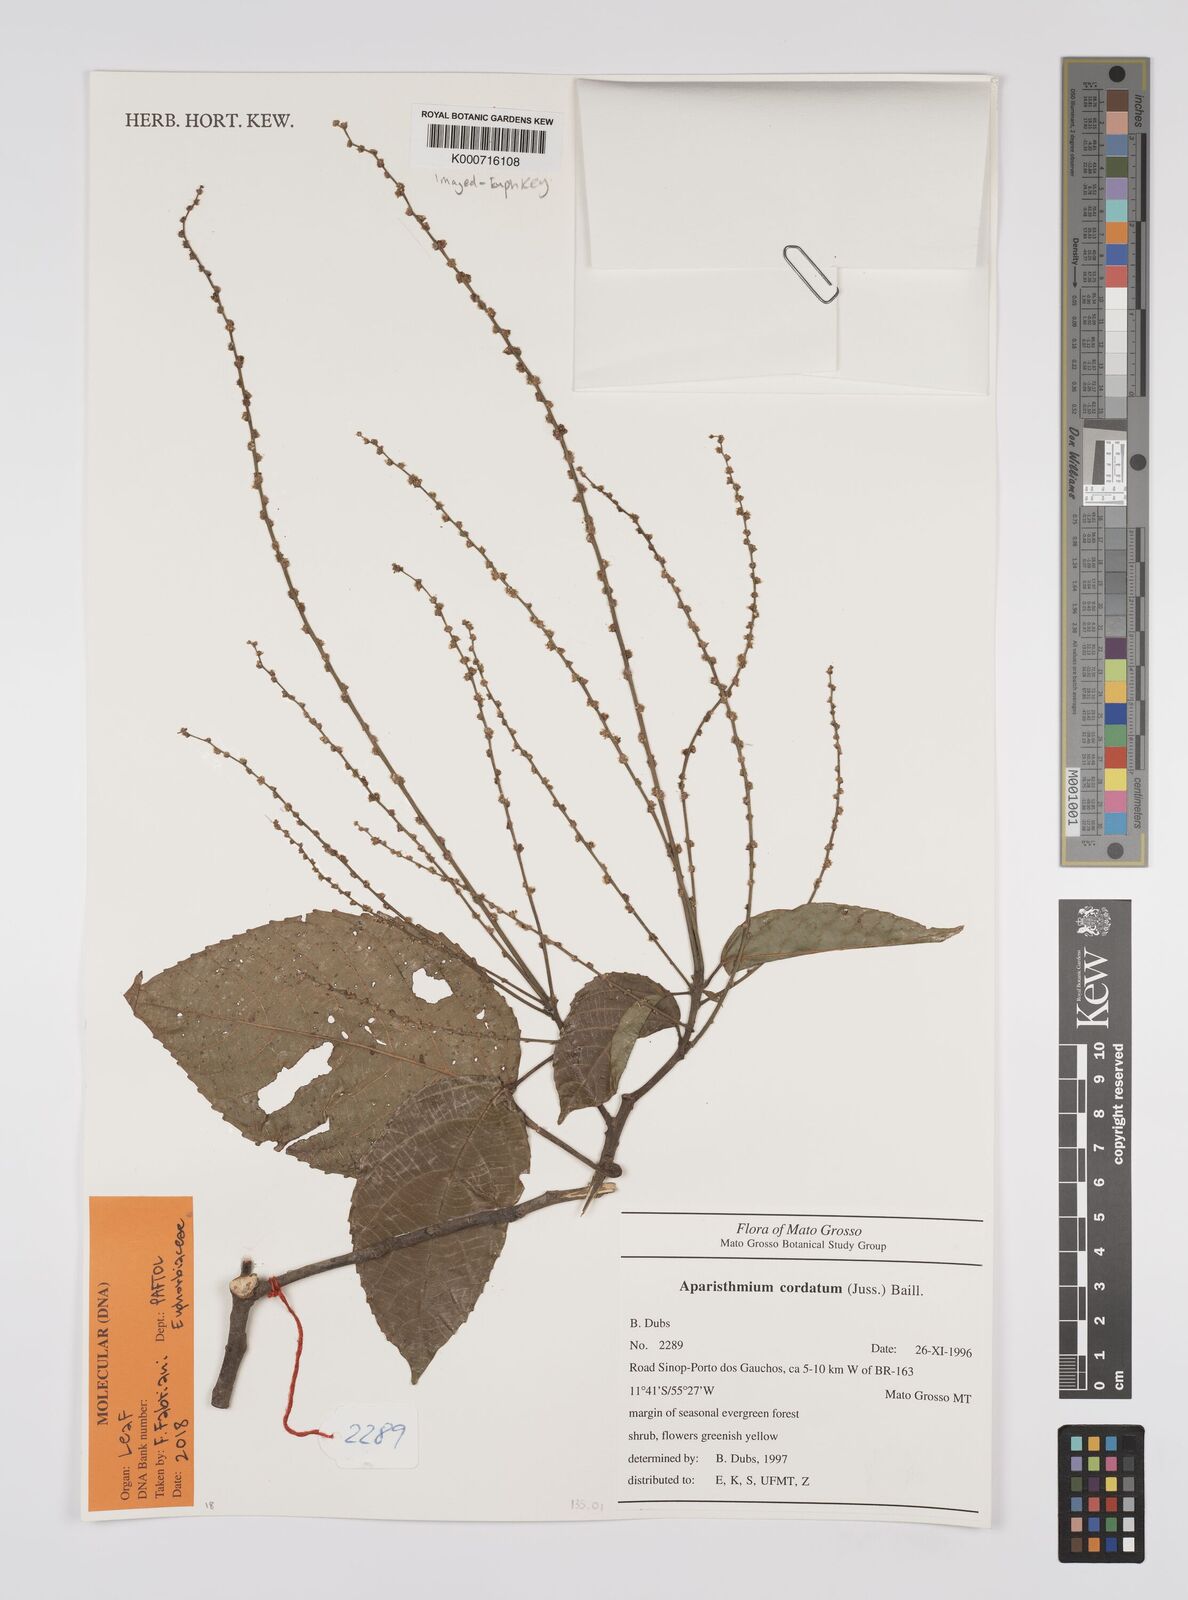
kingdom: Plantae
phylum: Tracheophyta
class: Magnoliopsida
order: Malpighiales
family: Euphorbiaceae
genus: Aparisthmium
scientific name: Aparisthmium cordatum
